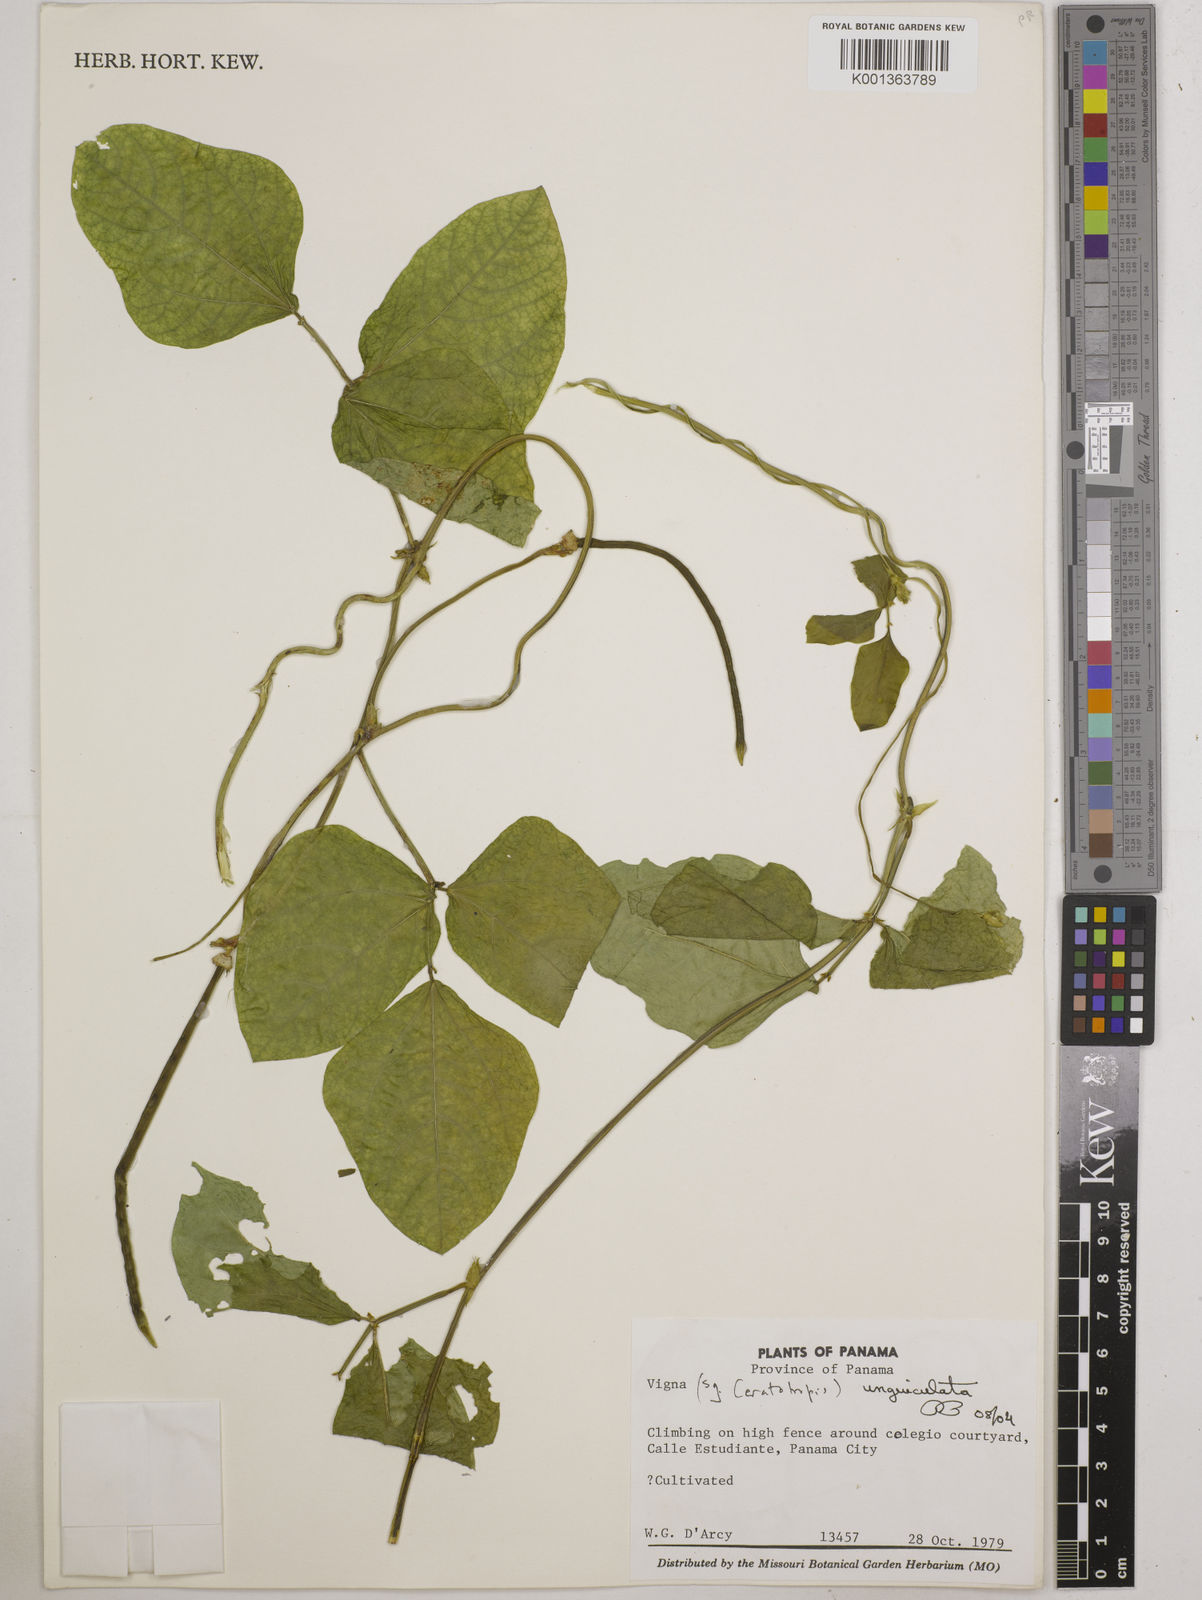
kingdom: Plantae
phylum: Tracheophyta
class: Magnoliopsida
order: Fabales
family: Fabaceae
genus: Vigna
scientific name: Vigna unguiculata
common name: Cowpea
